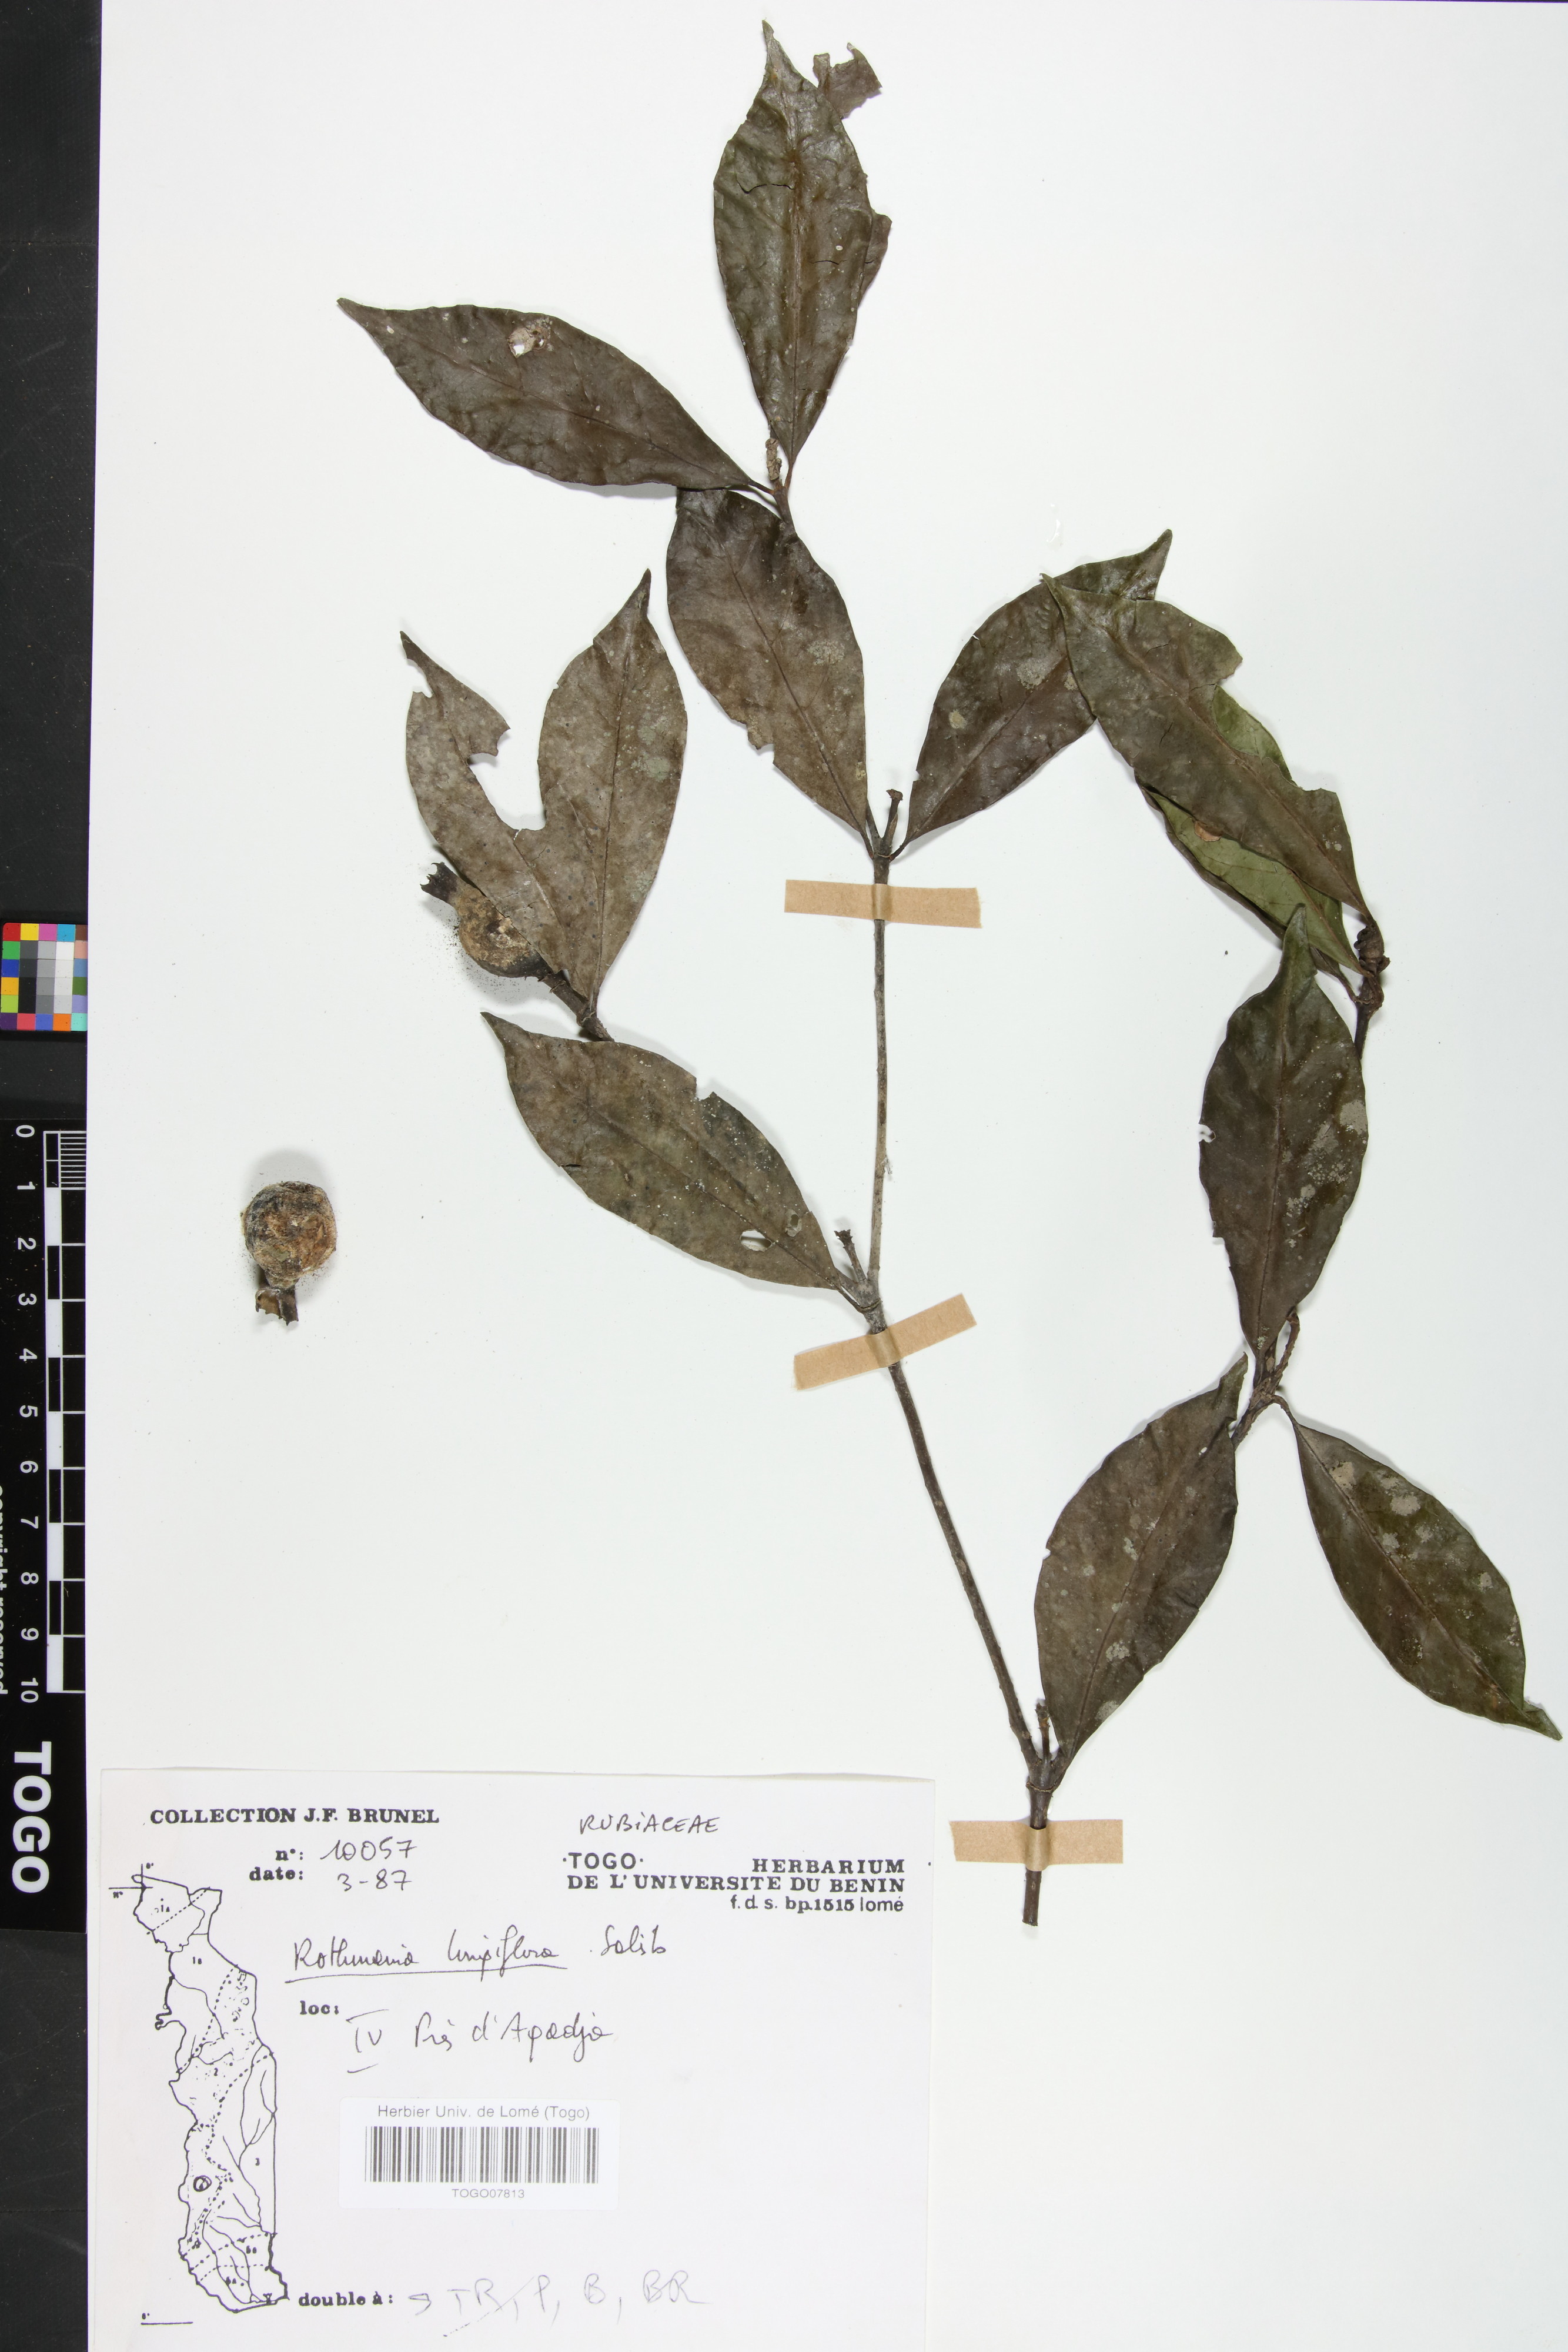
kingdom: Plantae
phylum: Tracheophyta
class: Magnoliopsida
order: Gentianales
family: Rubiaceae
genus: Rothmannia
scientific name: Rothmannia longiflora
